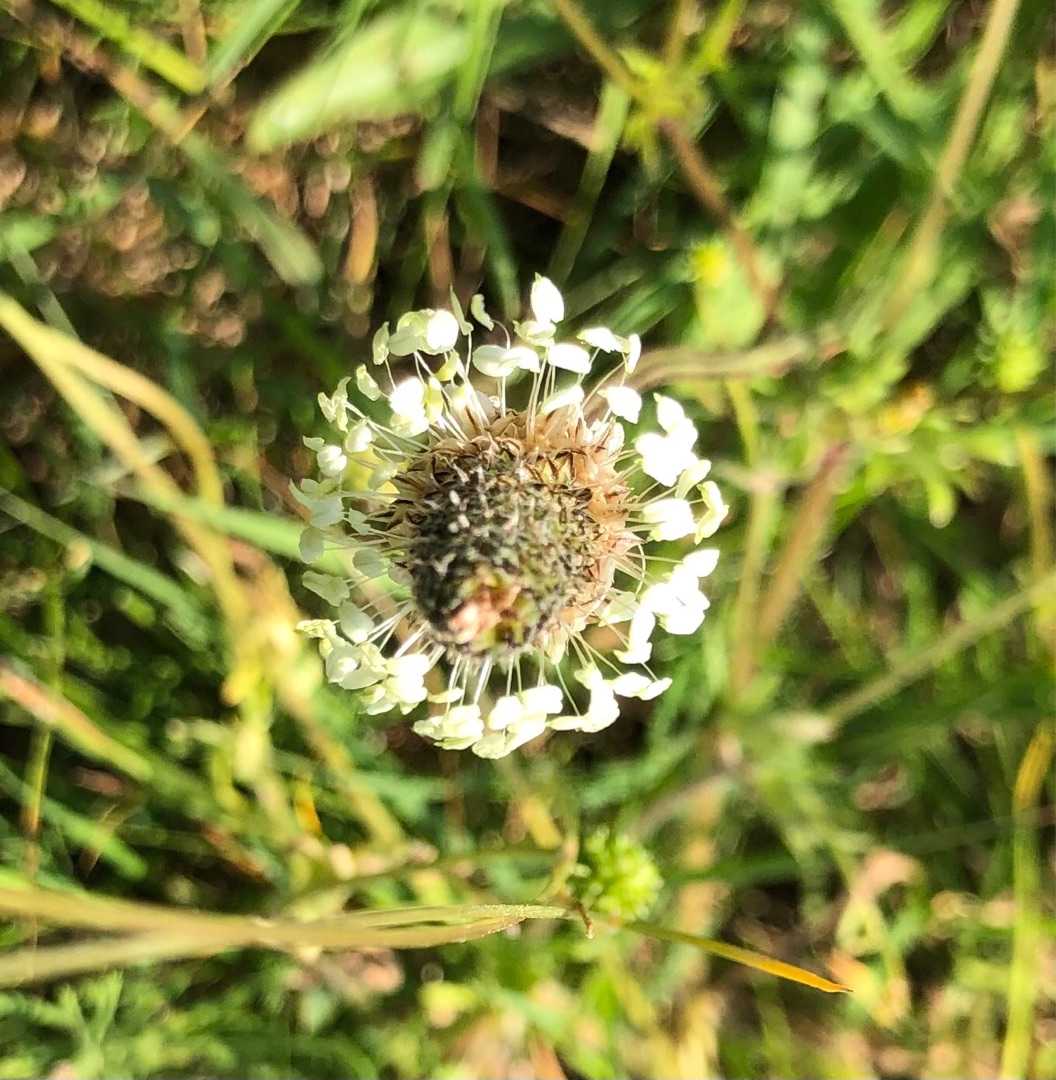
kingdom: Plantae
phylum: Tracheophyta
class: Magnoliopsida
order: Lamiales
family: Plantaginaceae
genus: Plantago
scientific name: Plantago lanceolata
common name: Lancet-vejbred
